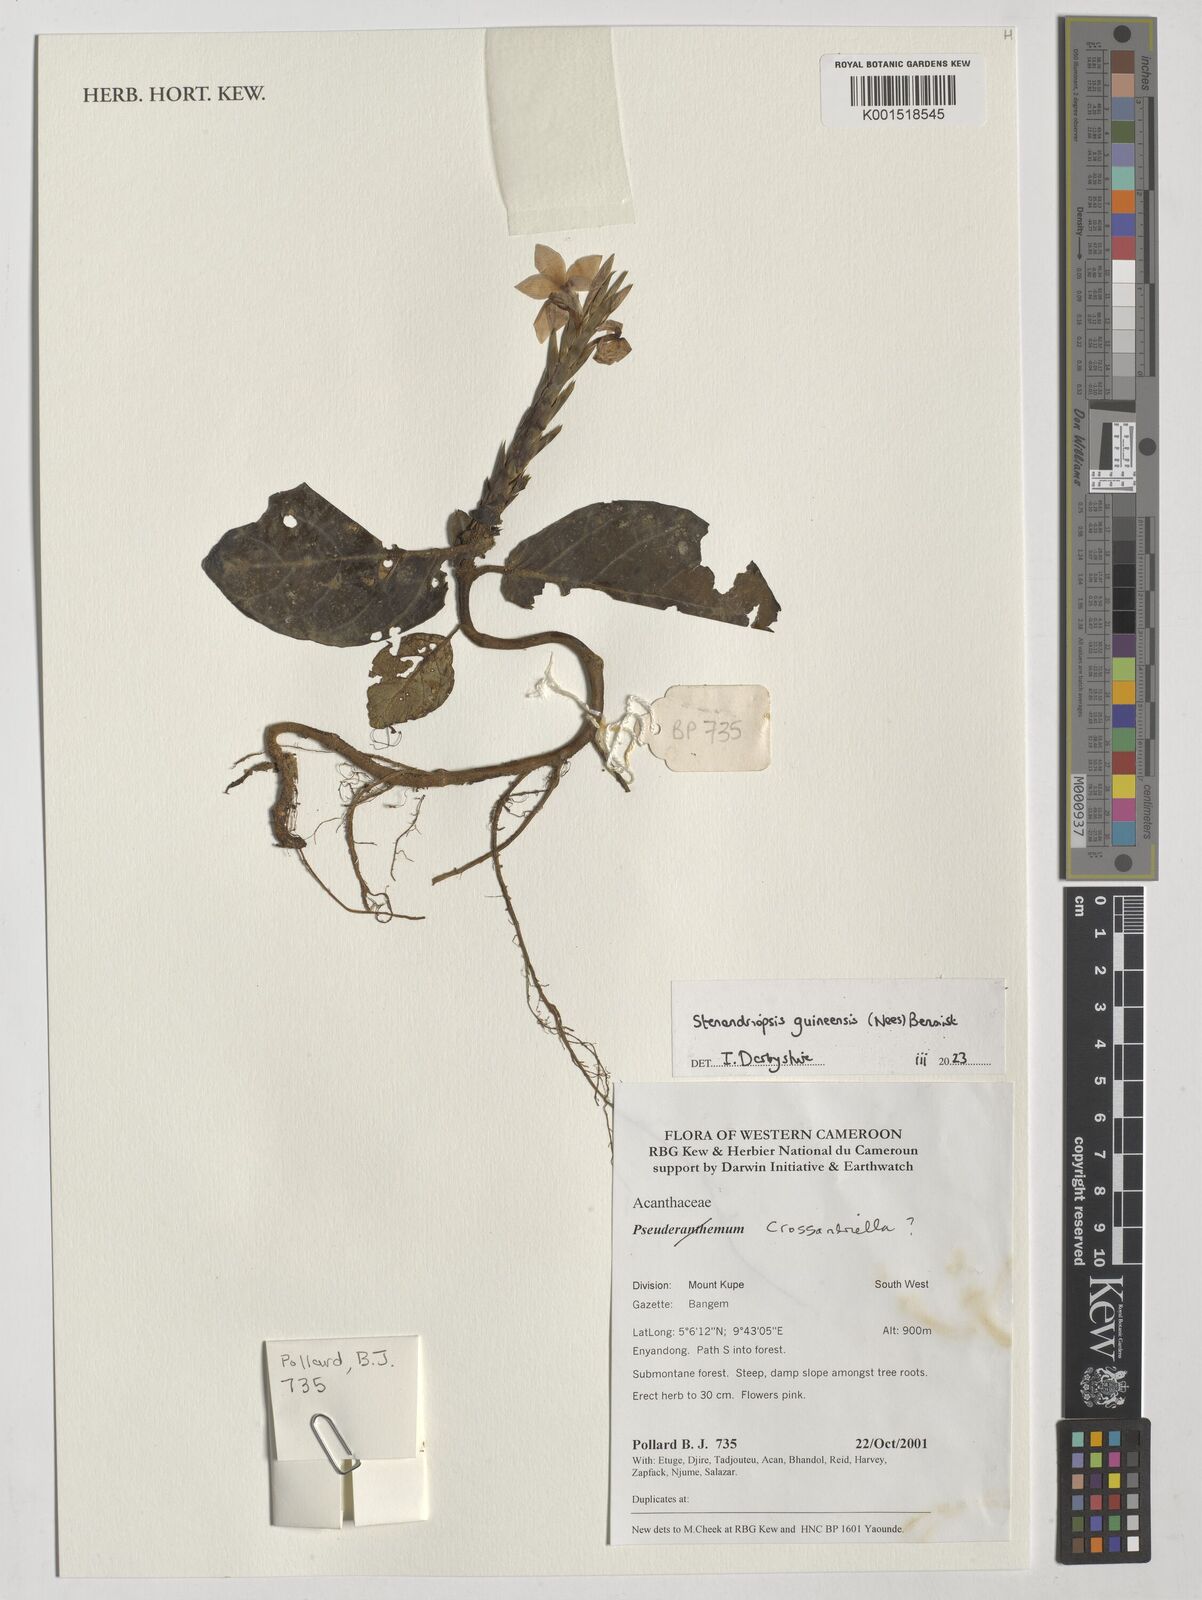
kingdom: Plantae
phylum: Tracheophyta
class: Magnoliopsida
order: Lamiales
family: Acanthaceae
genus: Stenandriopsis
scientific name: Stenandriopsis guineensis
